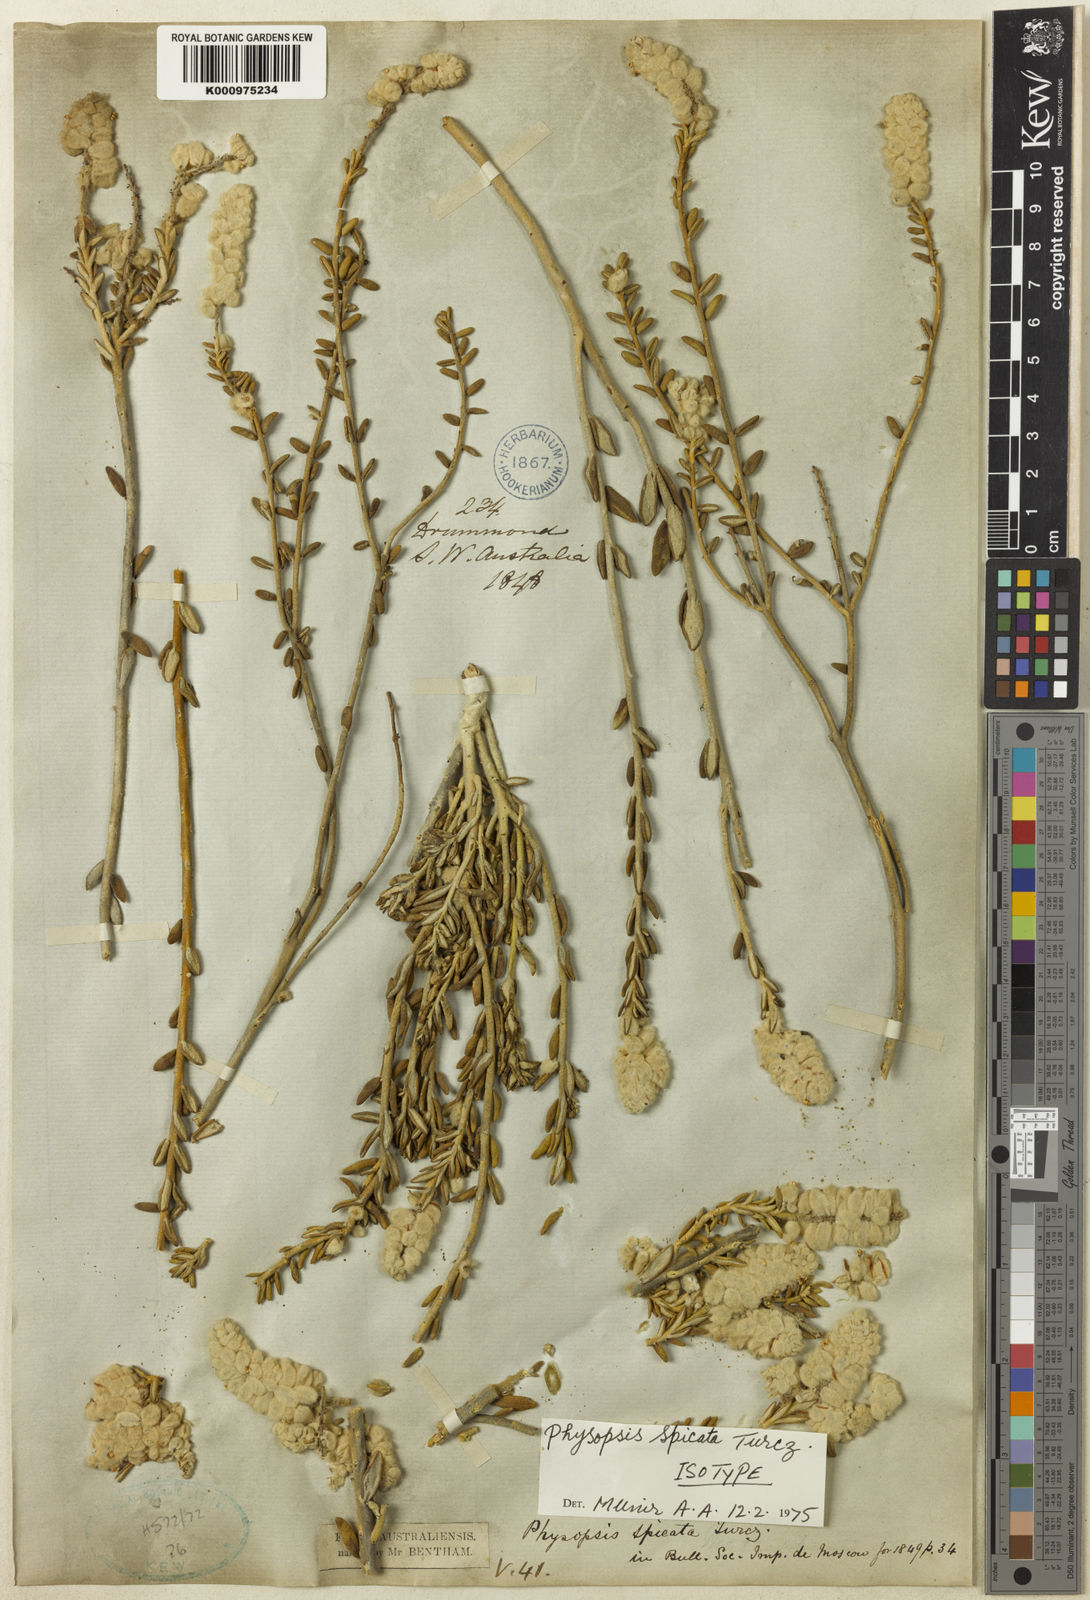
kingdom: Plantae
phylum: Tracheophyta
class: Magnoliopsida
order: Lamiales
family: Lamiaceae
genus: Physopsis
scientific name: Physopsis spicata
